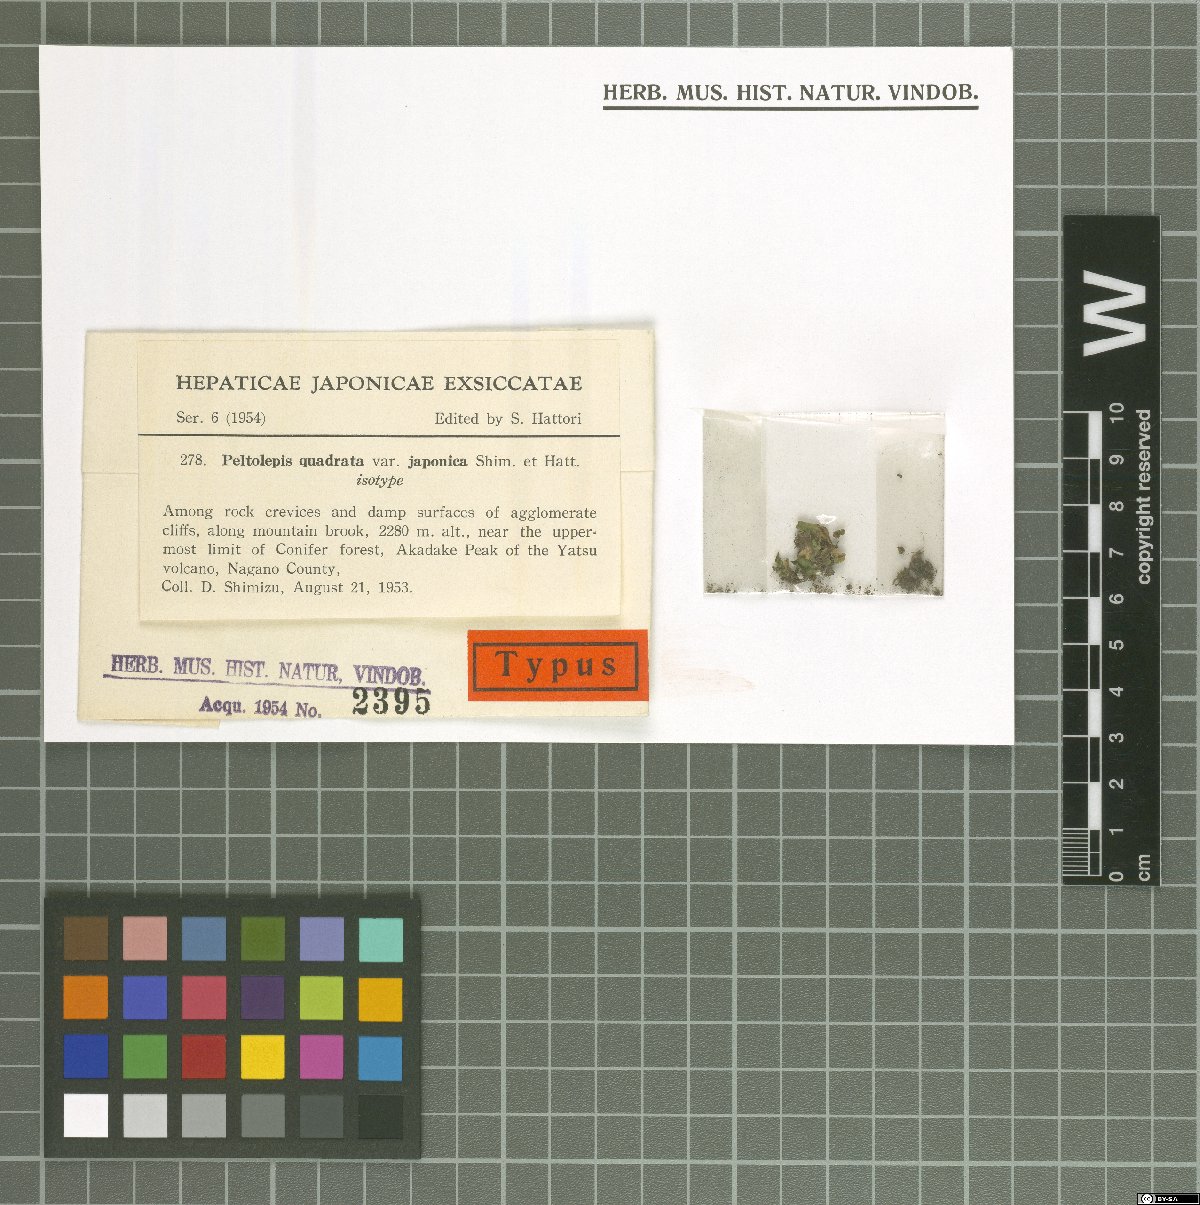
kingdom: Plantae
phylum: Marchantiophyta
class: Marchantiopsida
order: Marchantiales
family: Cleveaceae
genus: Peltolepis
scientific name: Peltolepis quadrata
